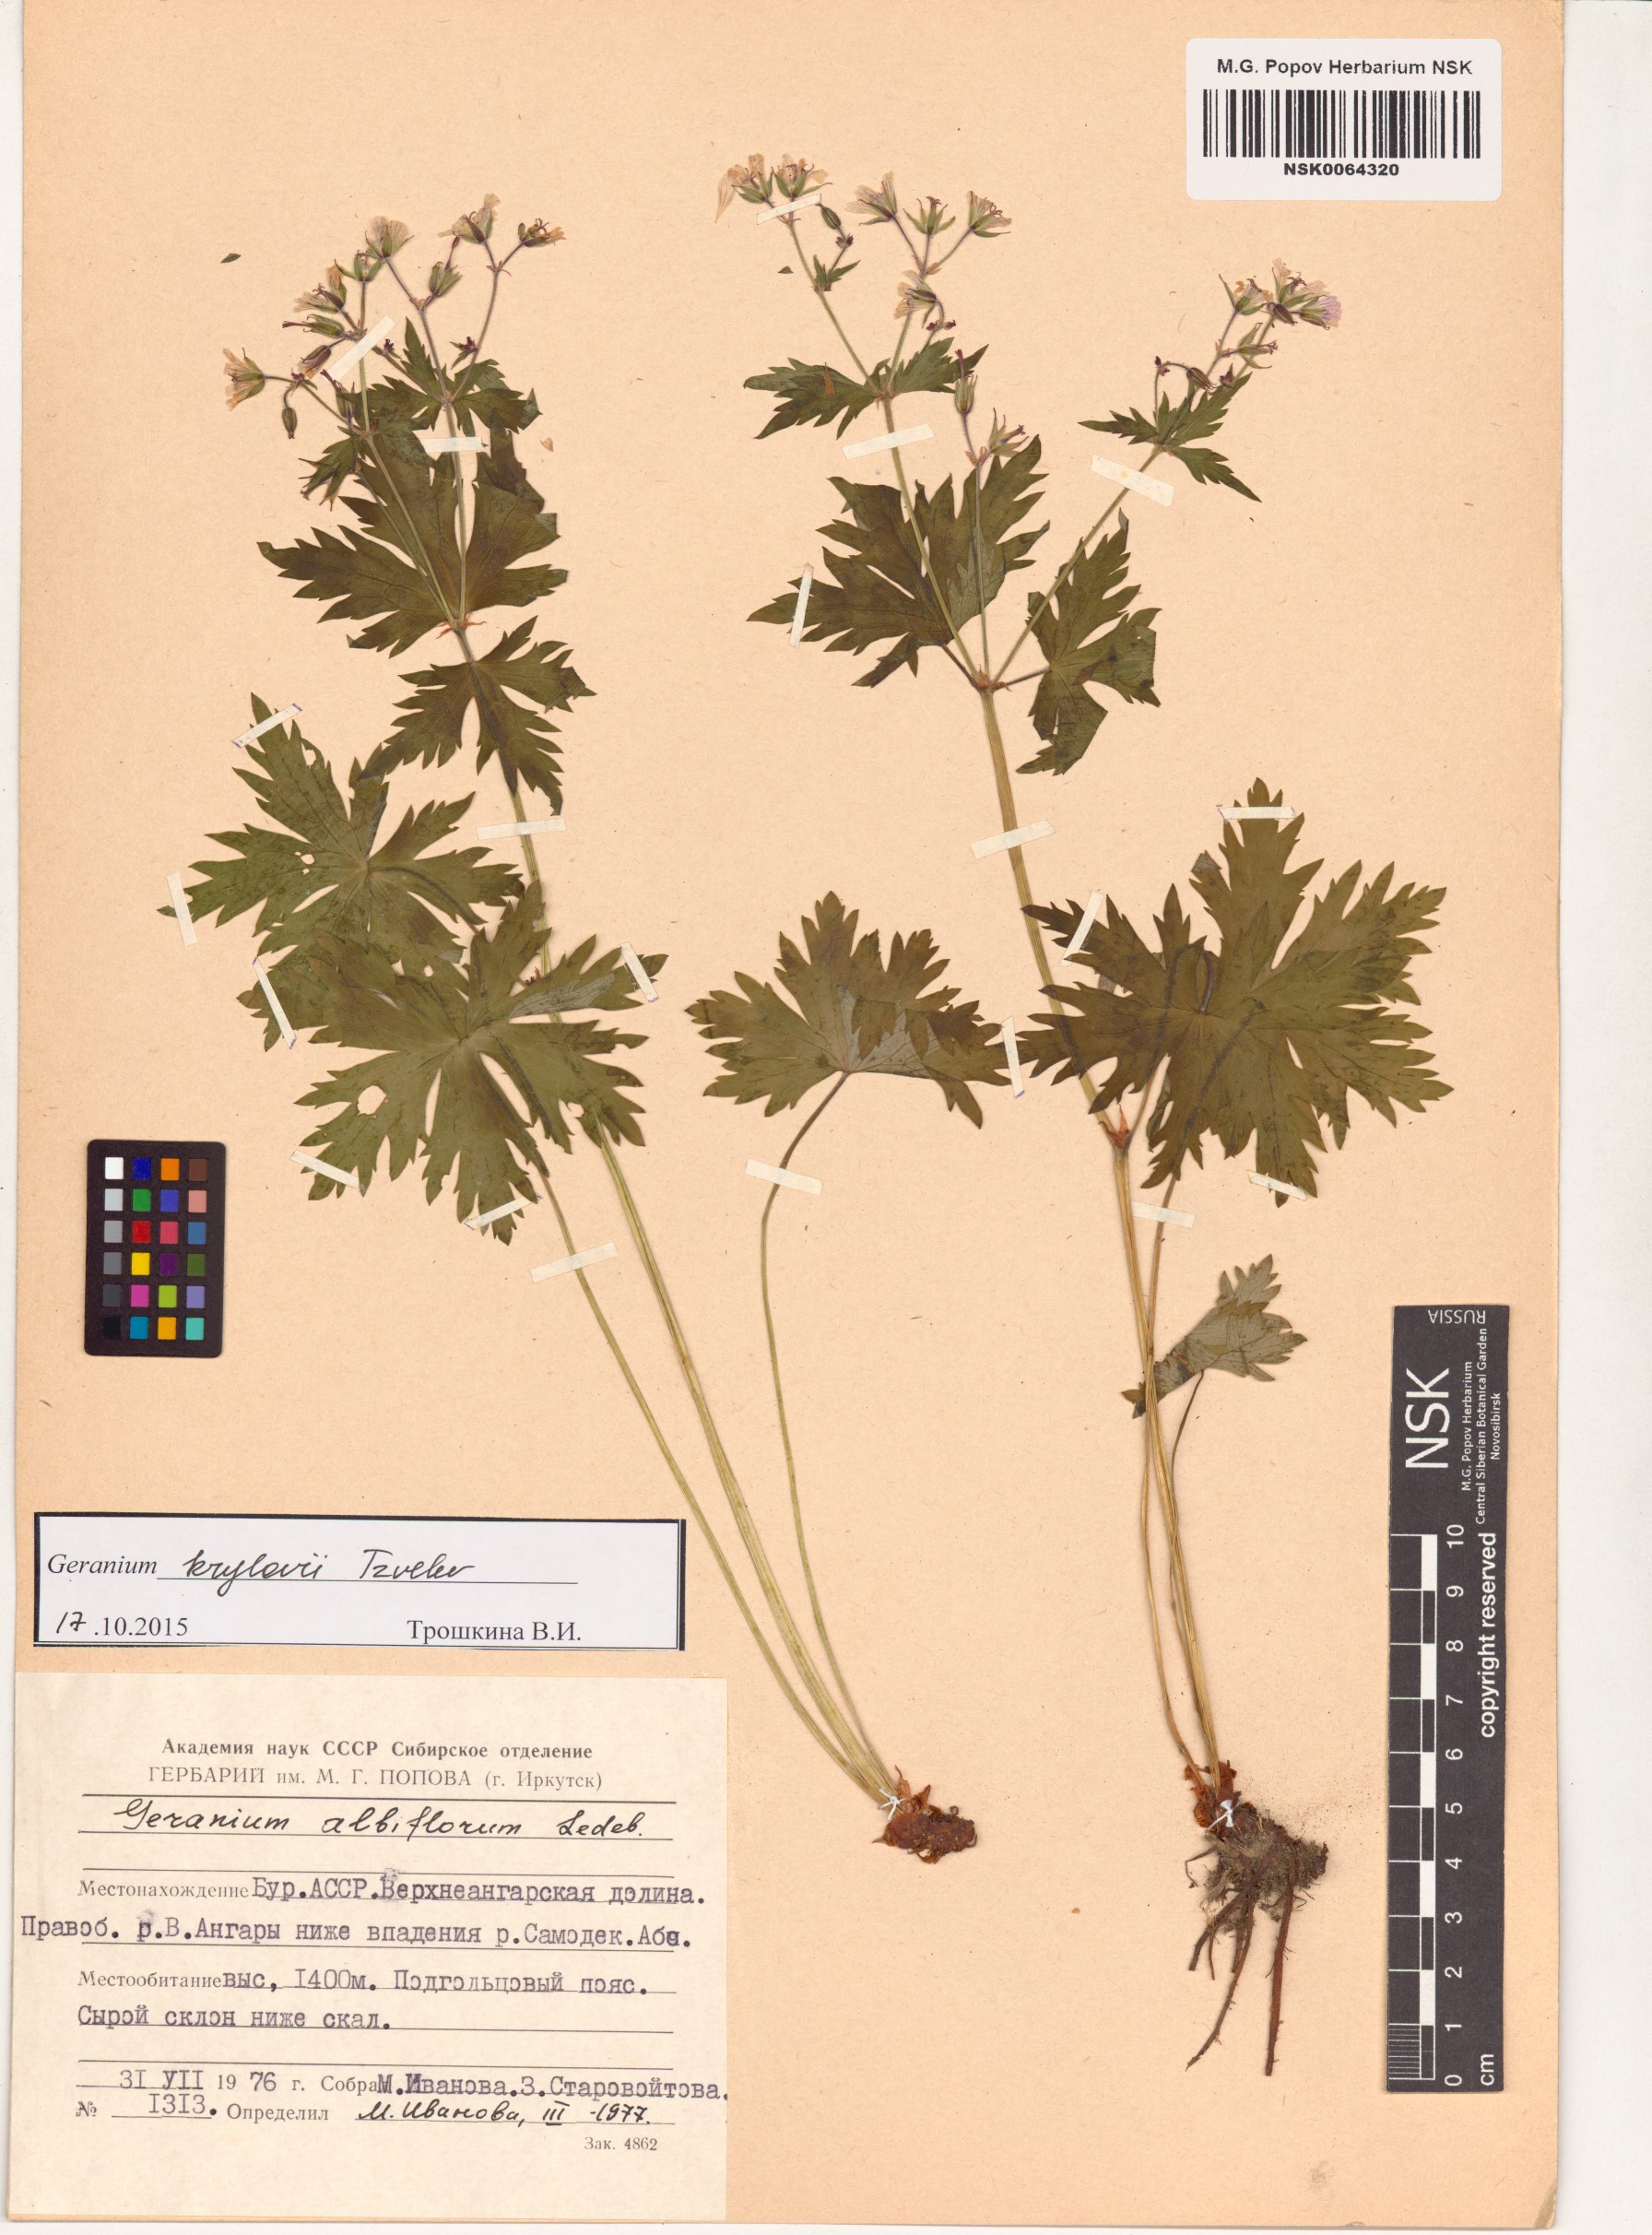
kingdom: Plantae
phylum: Tracheophyta
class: Magnoliopsida
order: Geraniales
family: Geraniaceae
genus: Geranium
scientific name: Geranium sylvaticum
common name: Wood crane's-bill
